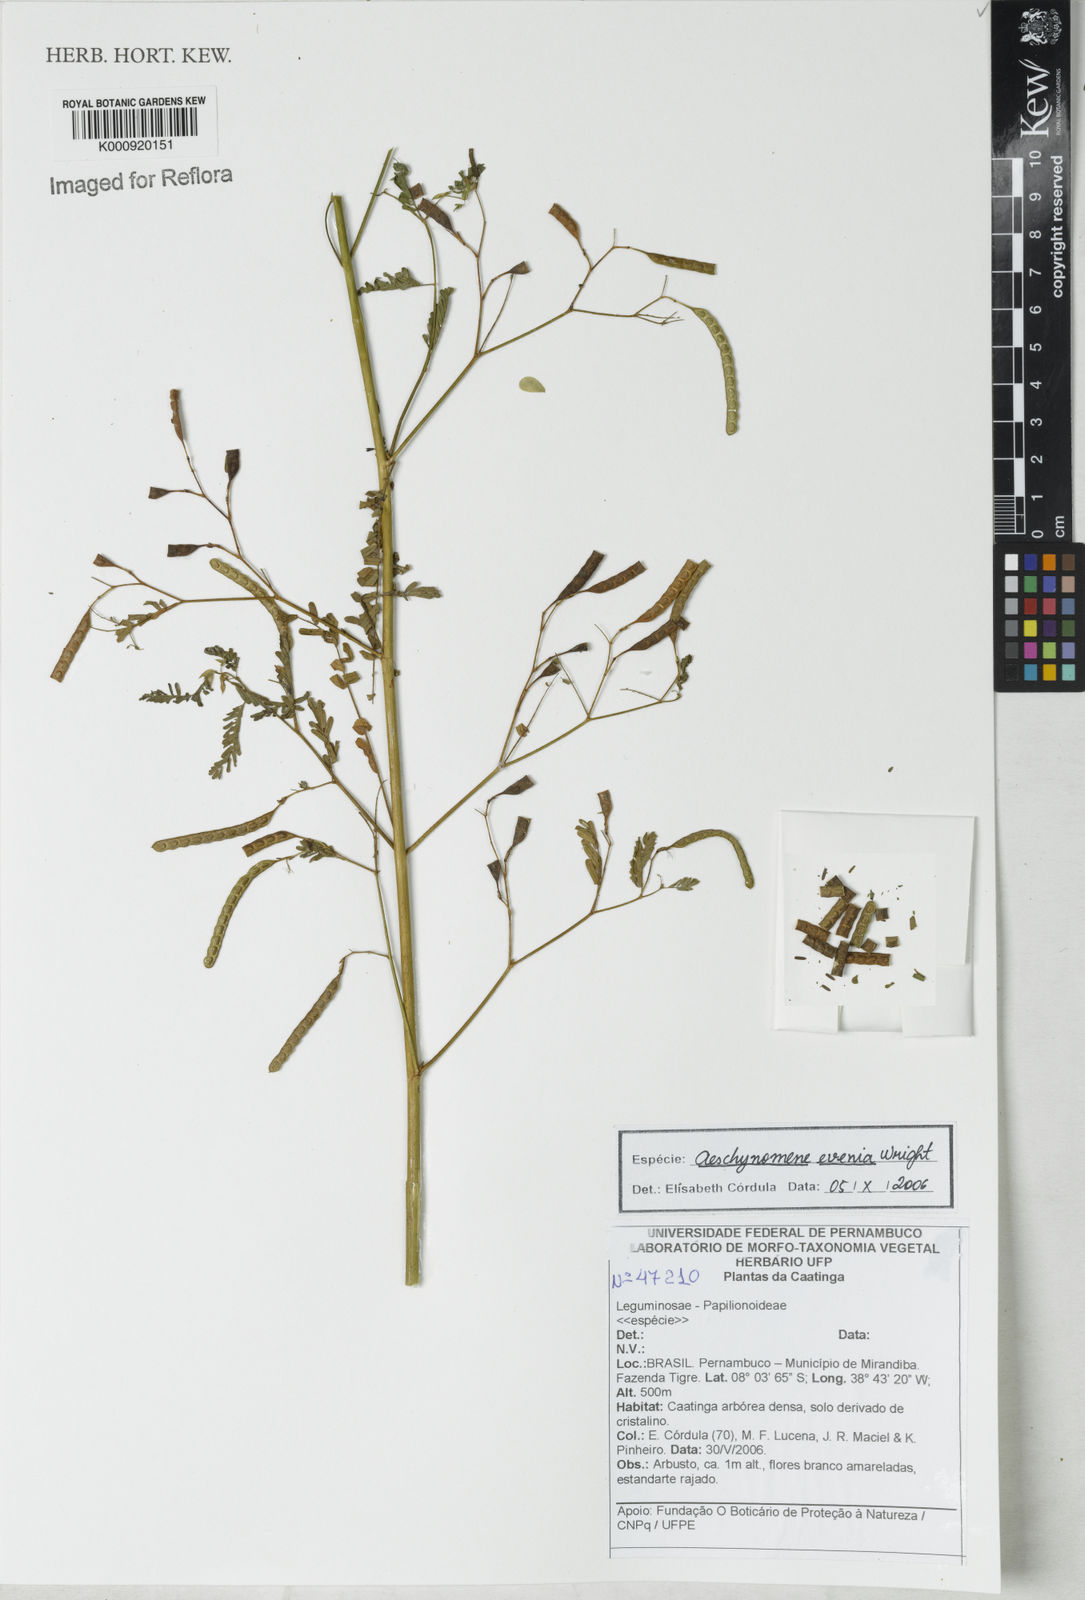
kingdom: Plantae
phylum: Tracheophyta
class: Magnoliopsida
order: Fabales
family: Fabaceae
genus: Aeschynomene
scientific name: Aeschynomene evenia
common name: Shrubby jointvetch
